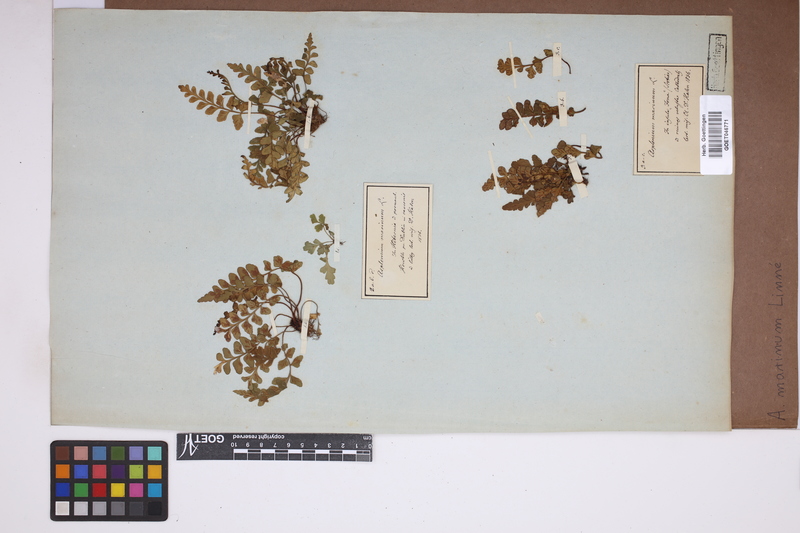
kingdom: Plantae
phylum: Tracheophyta
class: Polypodiopsida
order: Polypodiales
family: Aspleniaceae
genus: Asplenium
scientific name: Asplenium marinum
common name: Sea spleenwort
